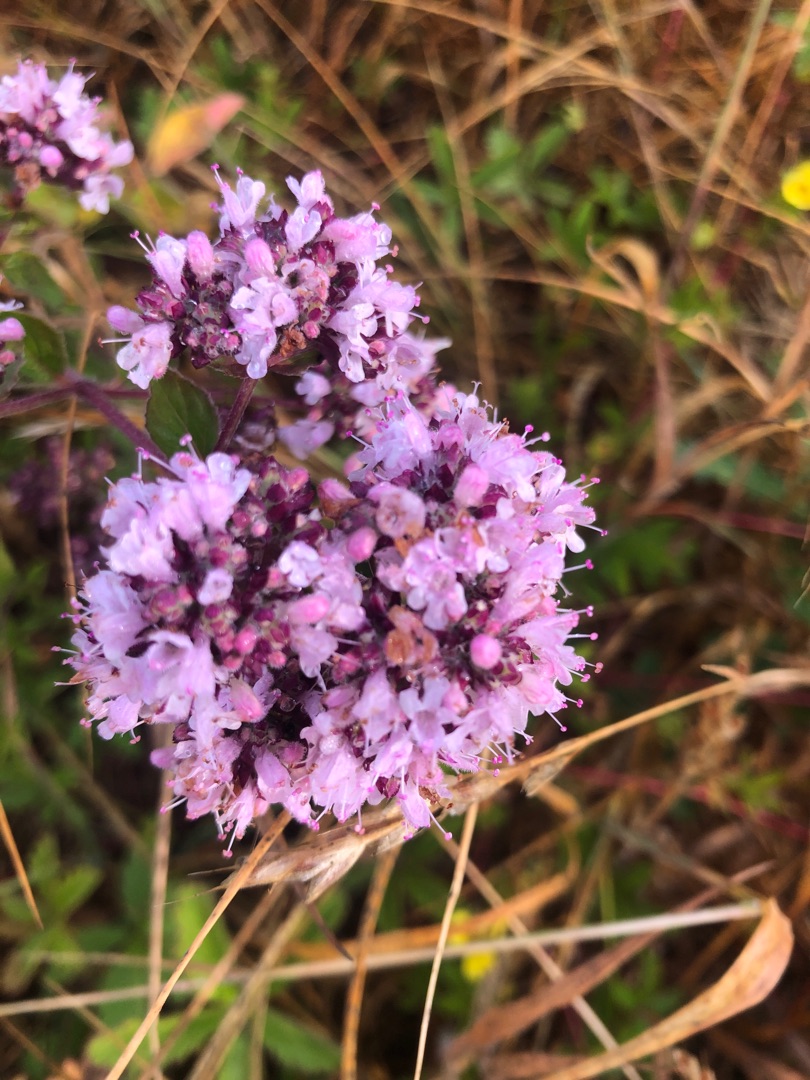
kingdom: Plantae
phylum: Tracheophyta
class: Magnoliopsida
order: Lamiales
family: Lamiaceae
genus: Origanum
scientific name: Origanum vulgare
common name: Merian
